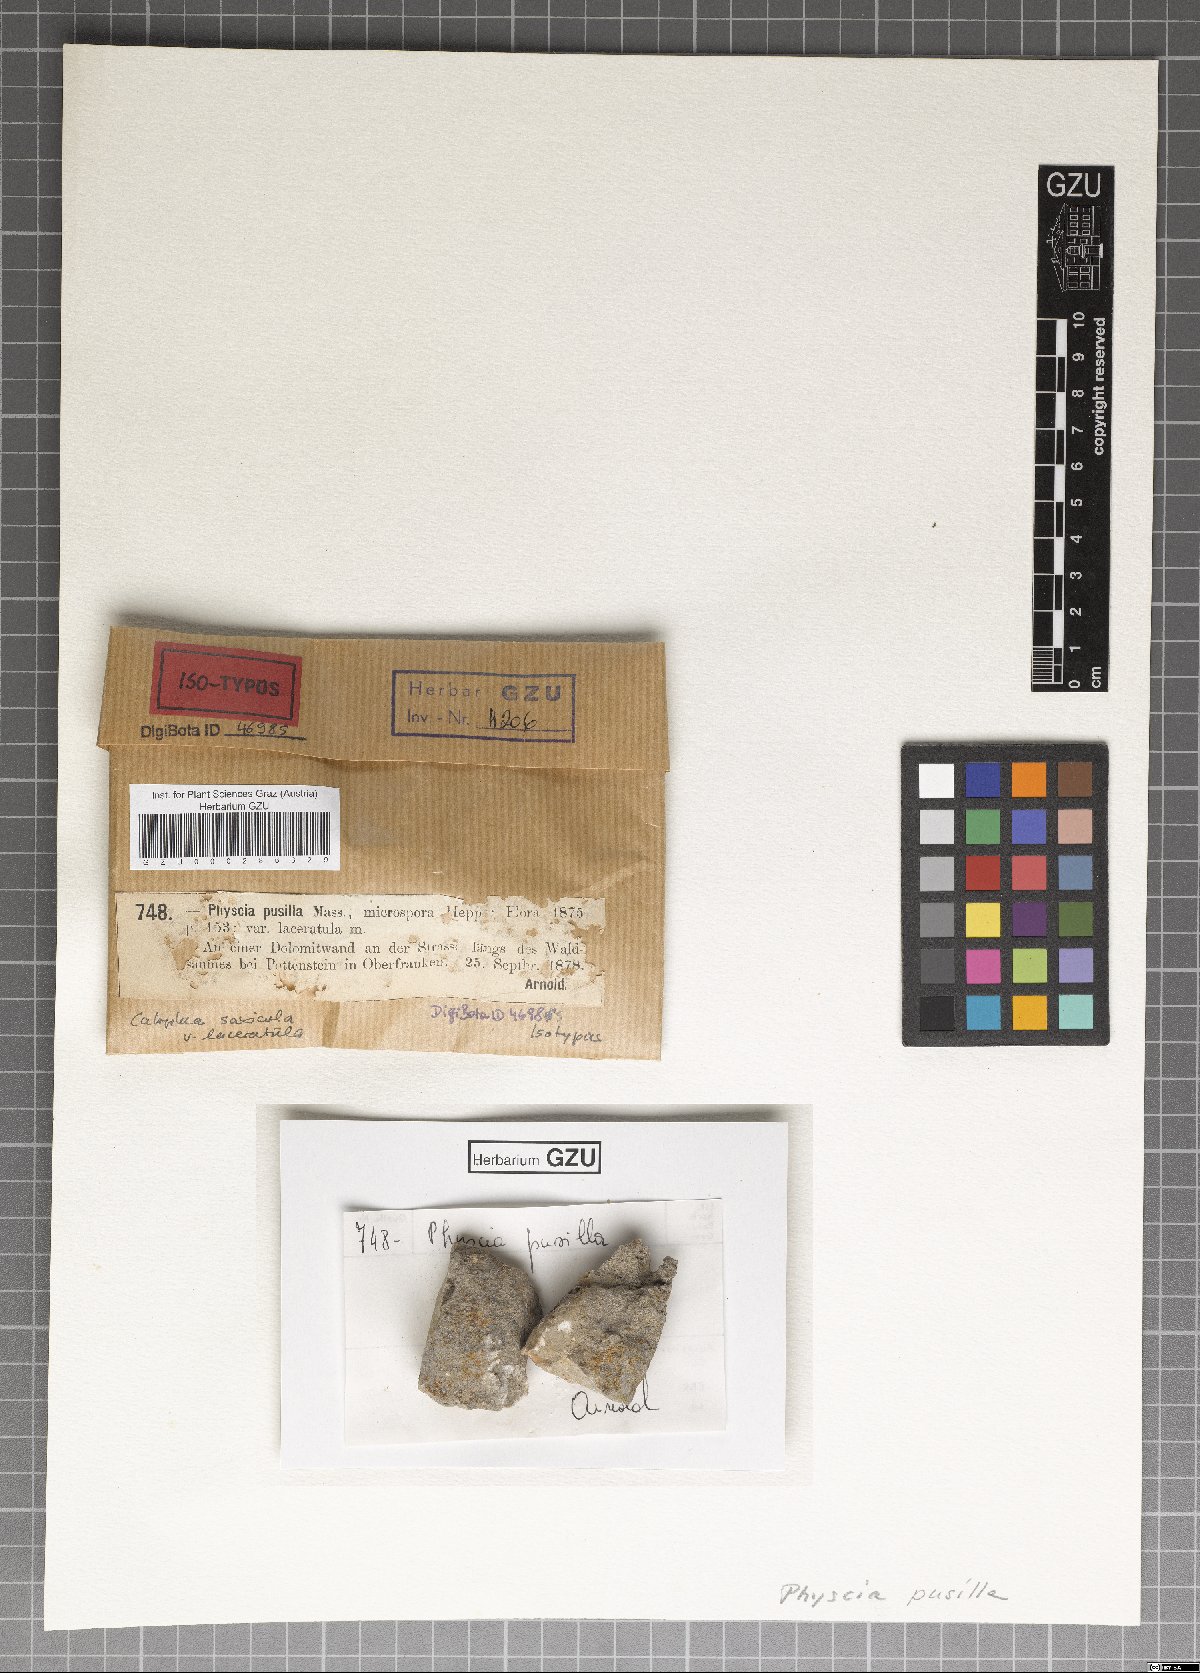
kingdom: Fungi
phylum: Ascomycota
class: Lecanoromycetes
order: Caliciales
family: Physciaceae
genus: Phaeophyscia
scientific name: Phaeophyscia pusilloides
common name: Pom-pom shadow lichen
